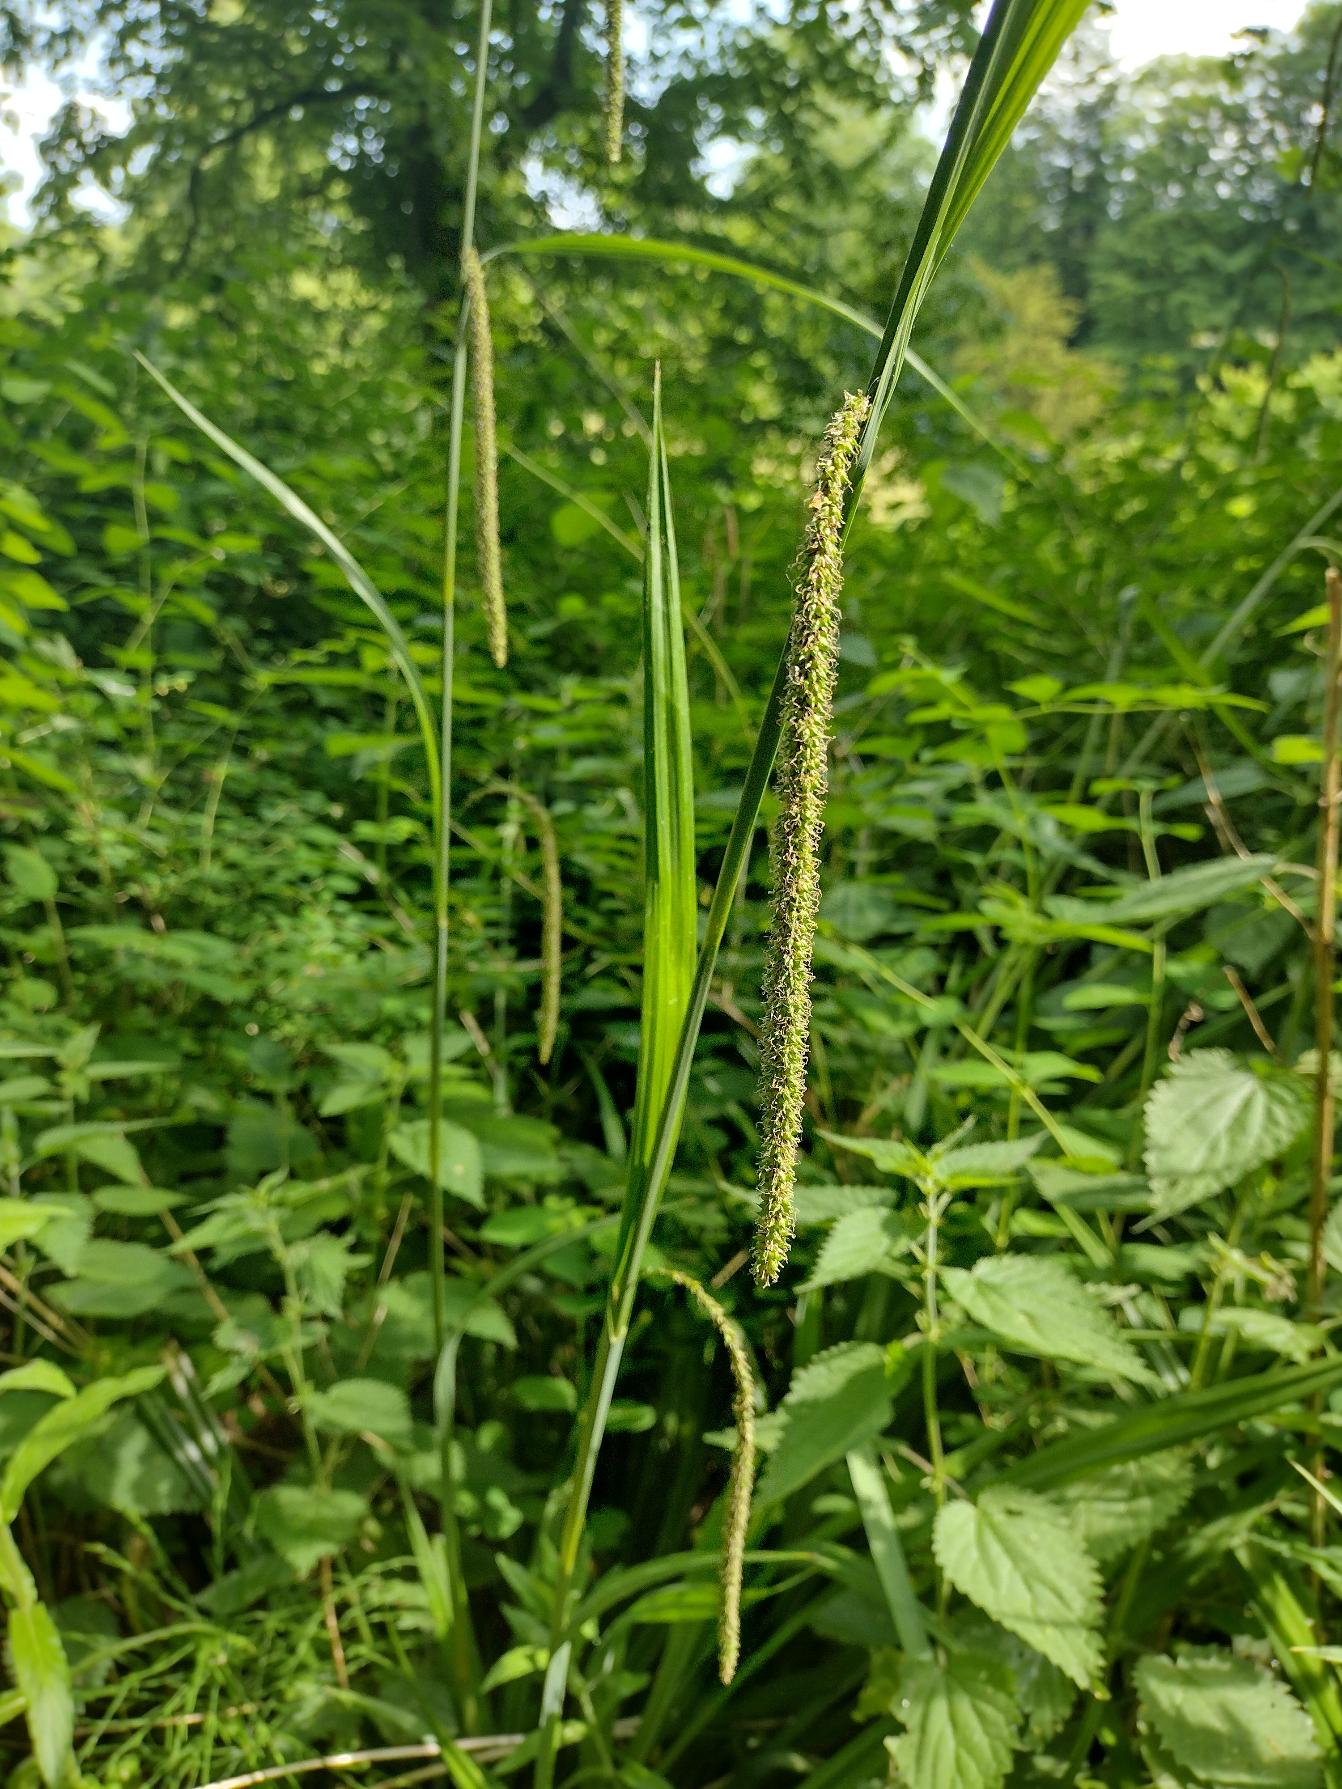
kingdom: Plantae
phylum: Tracheophyta
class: Liliopsida
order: Poales
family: Cyperaceae
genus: Carex
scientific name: Carex pendula
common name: Kæmpe-star
